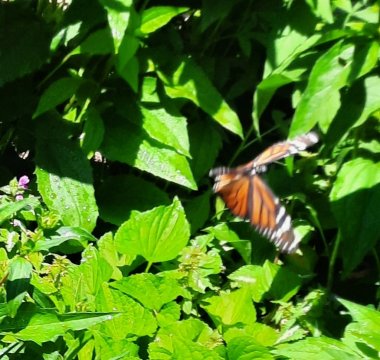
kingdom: Animalia
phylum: Arthropoda
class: Insecta
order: Lepidoptera
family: Nymphalidae
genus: Danaus
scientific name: Danaus plexippus
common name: Monarch
